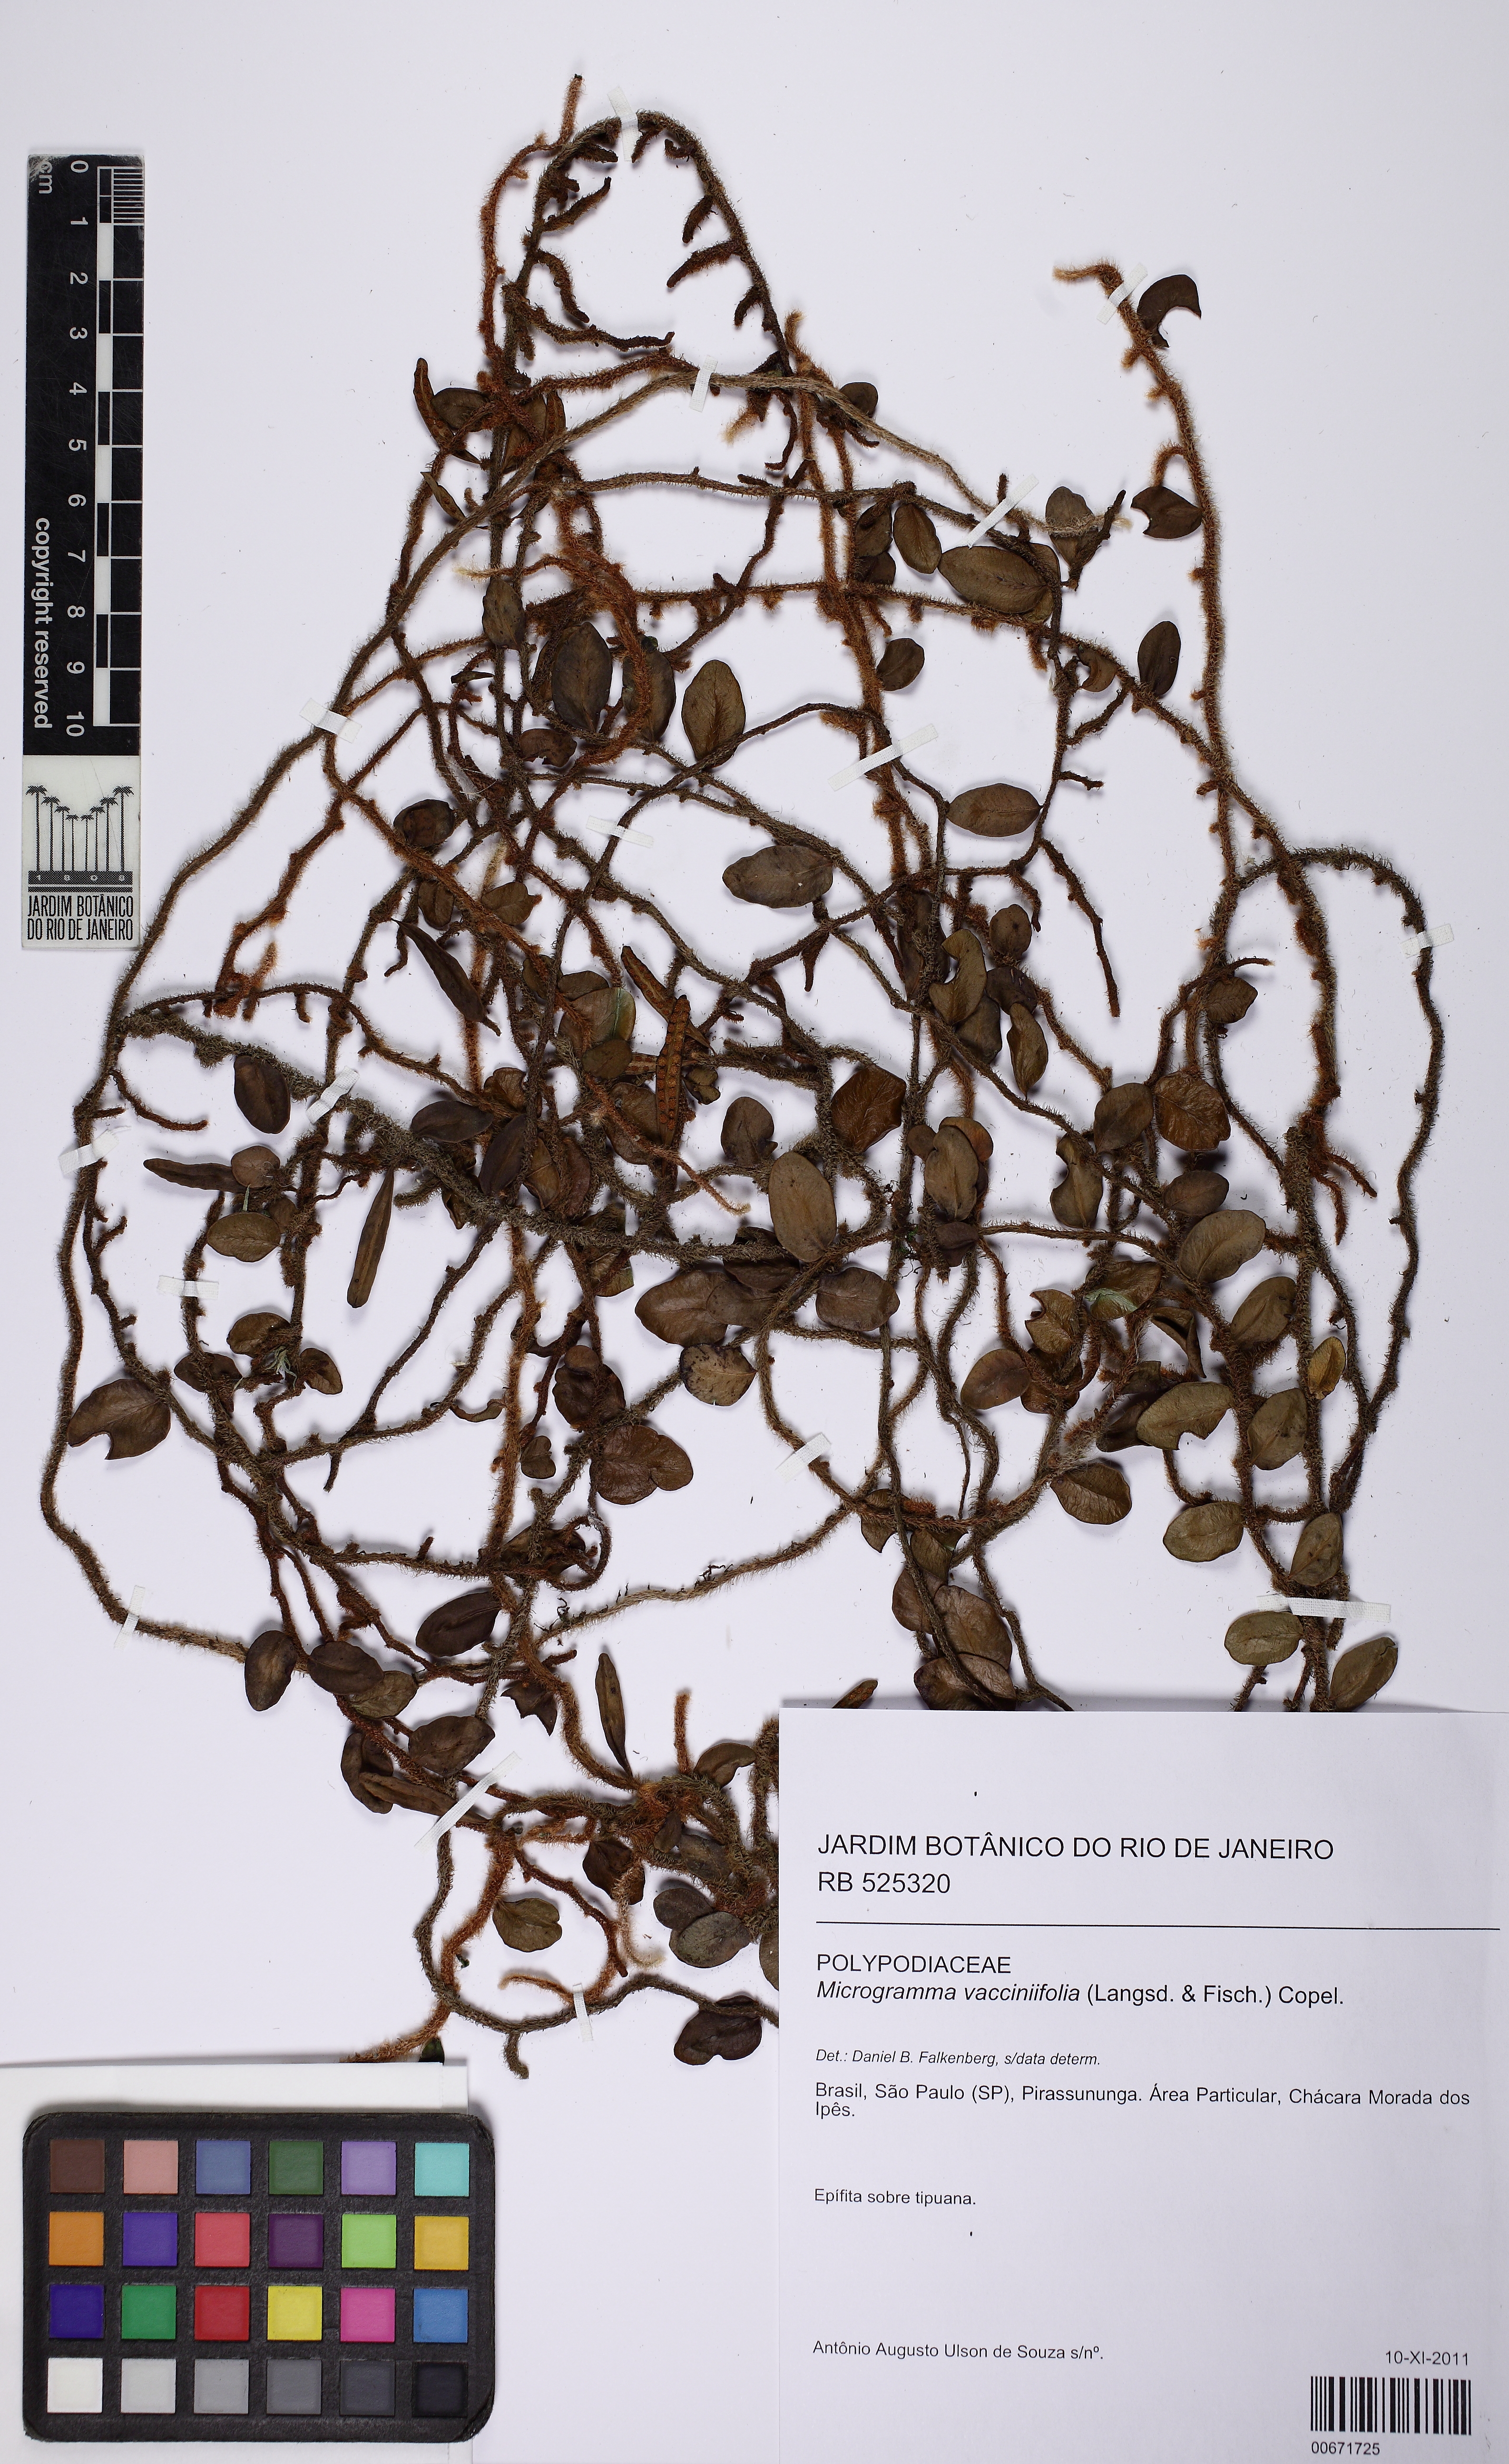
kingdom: Plantae
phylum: Tracheophyta
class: Polypodiopsida
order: Polypodiales
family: Polypodiaceae
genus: Microgramma
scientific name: Microgramma vaccinifolia
